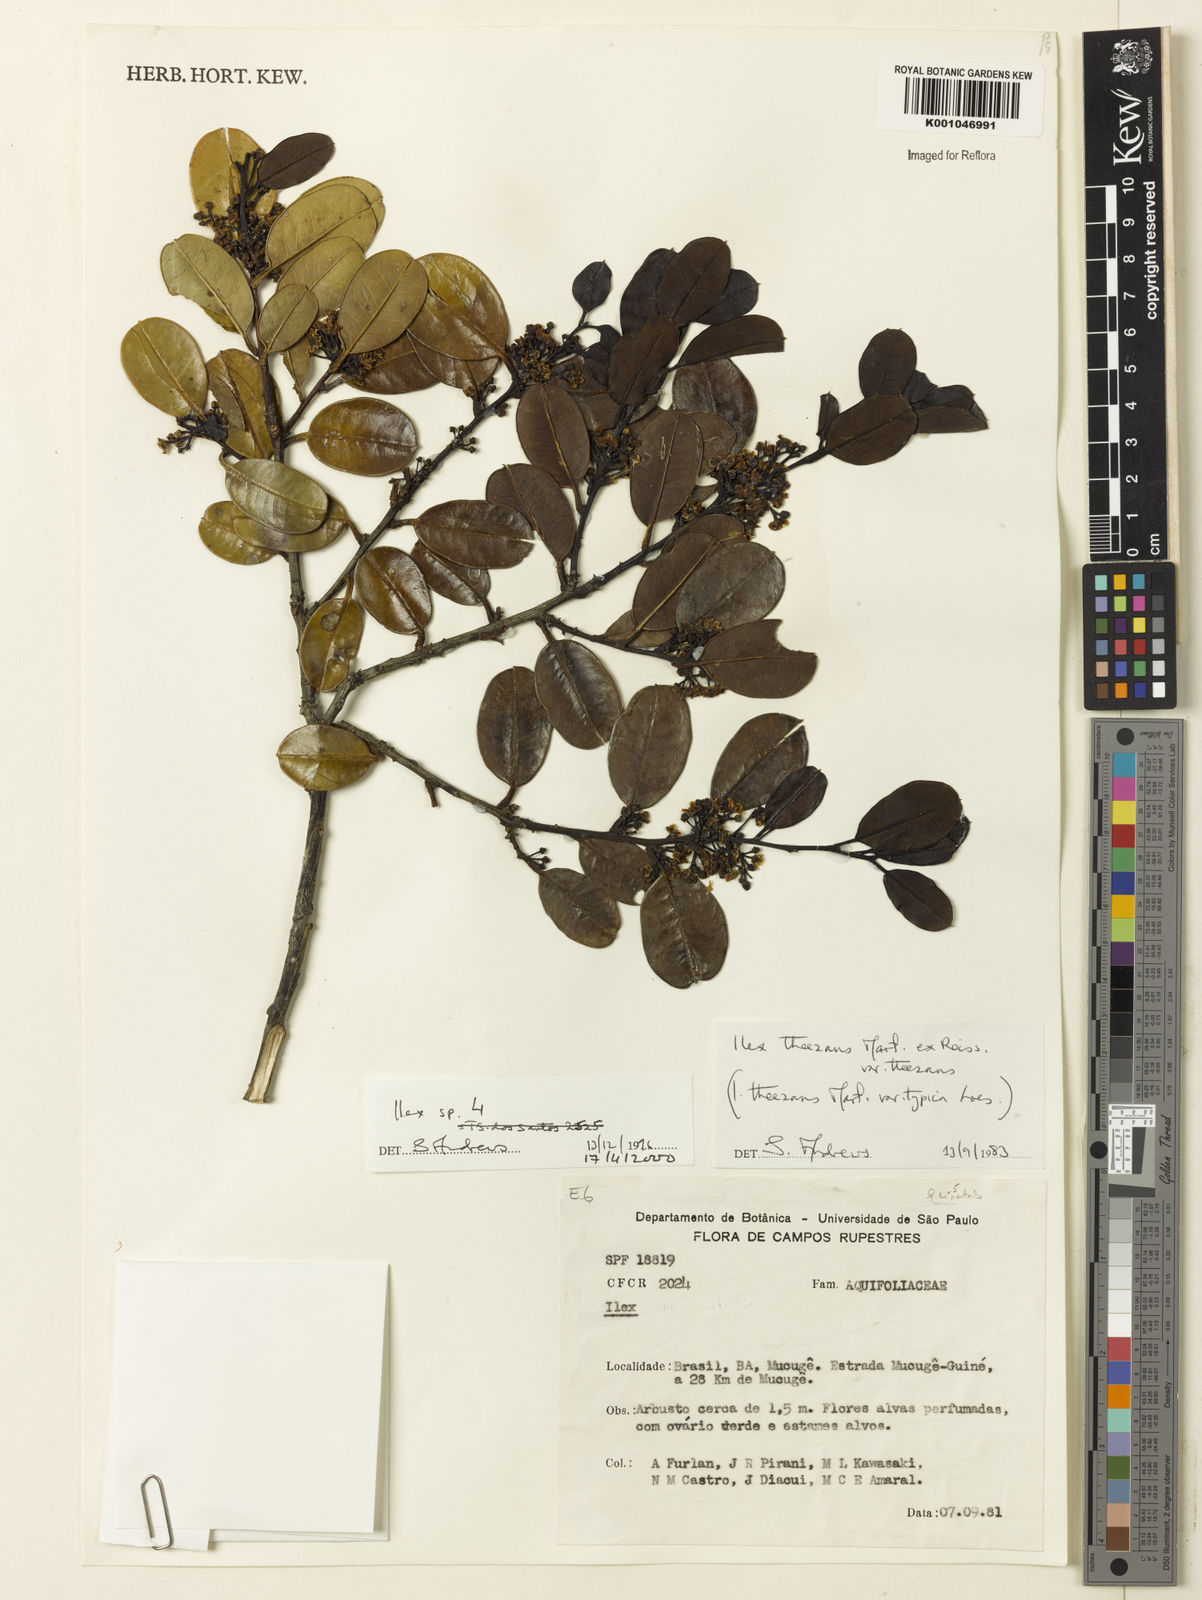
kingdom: Plantae
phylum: Tracheophyta
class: Magnoliopsida
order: Aquifoliales
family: Aquifoliaceae
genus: Ilex
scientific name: Ilex
